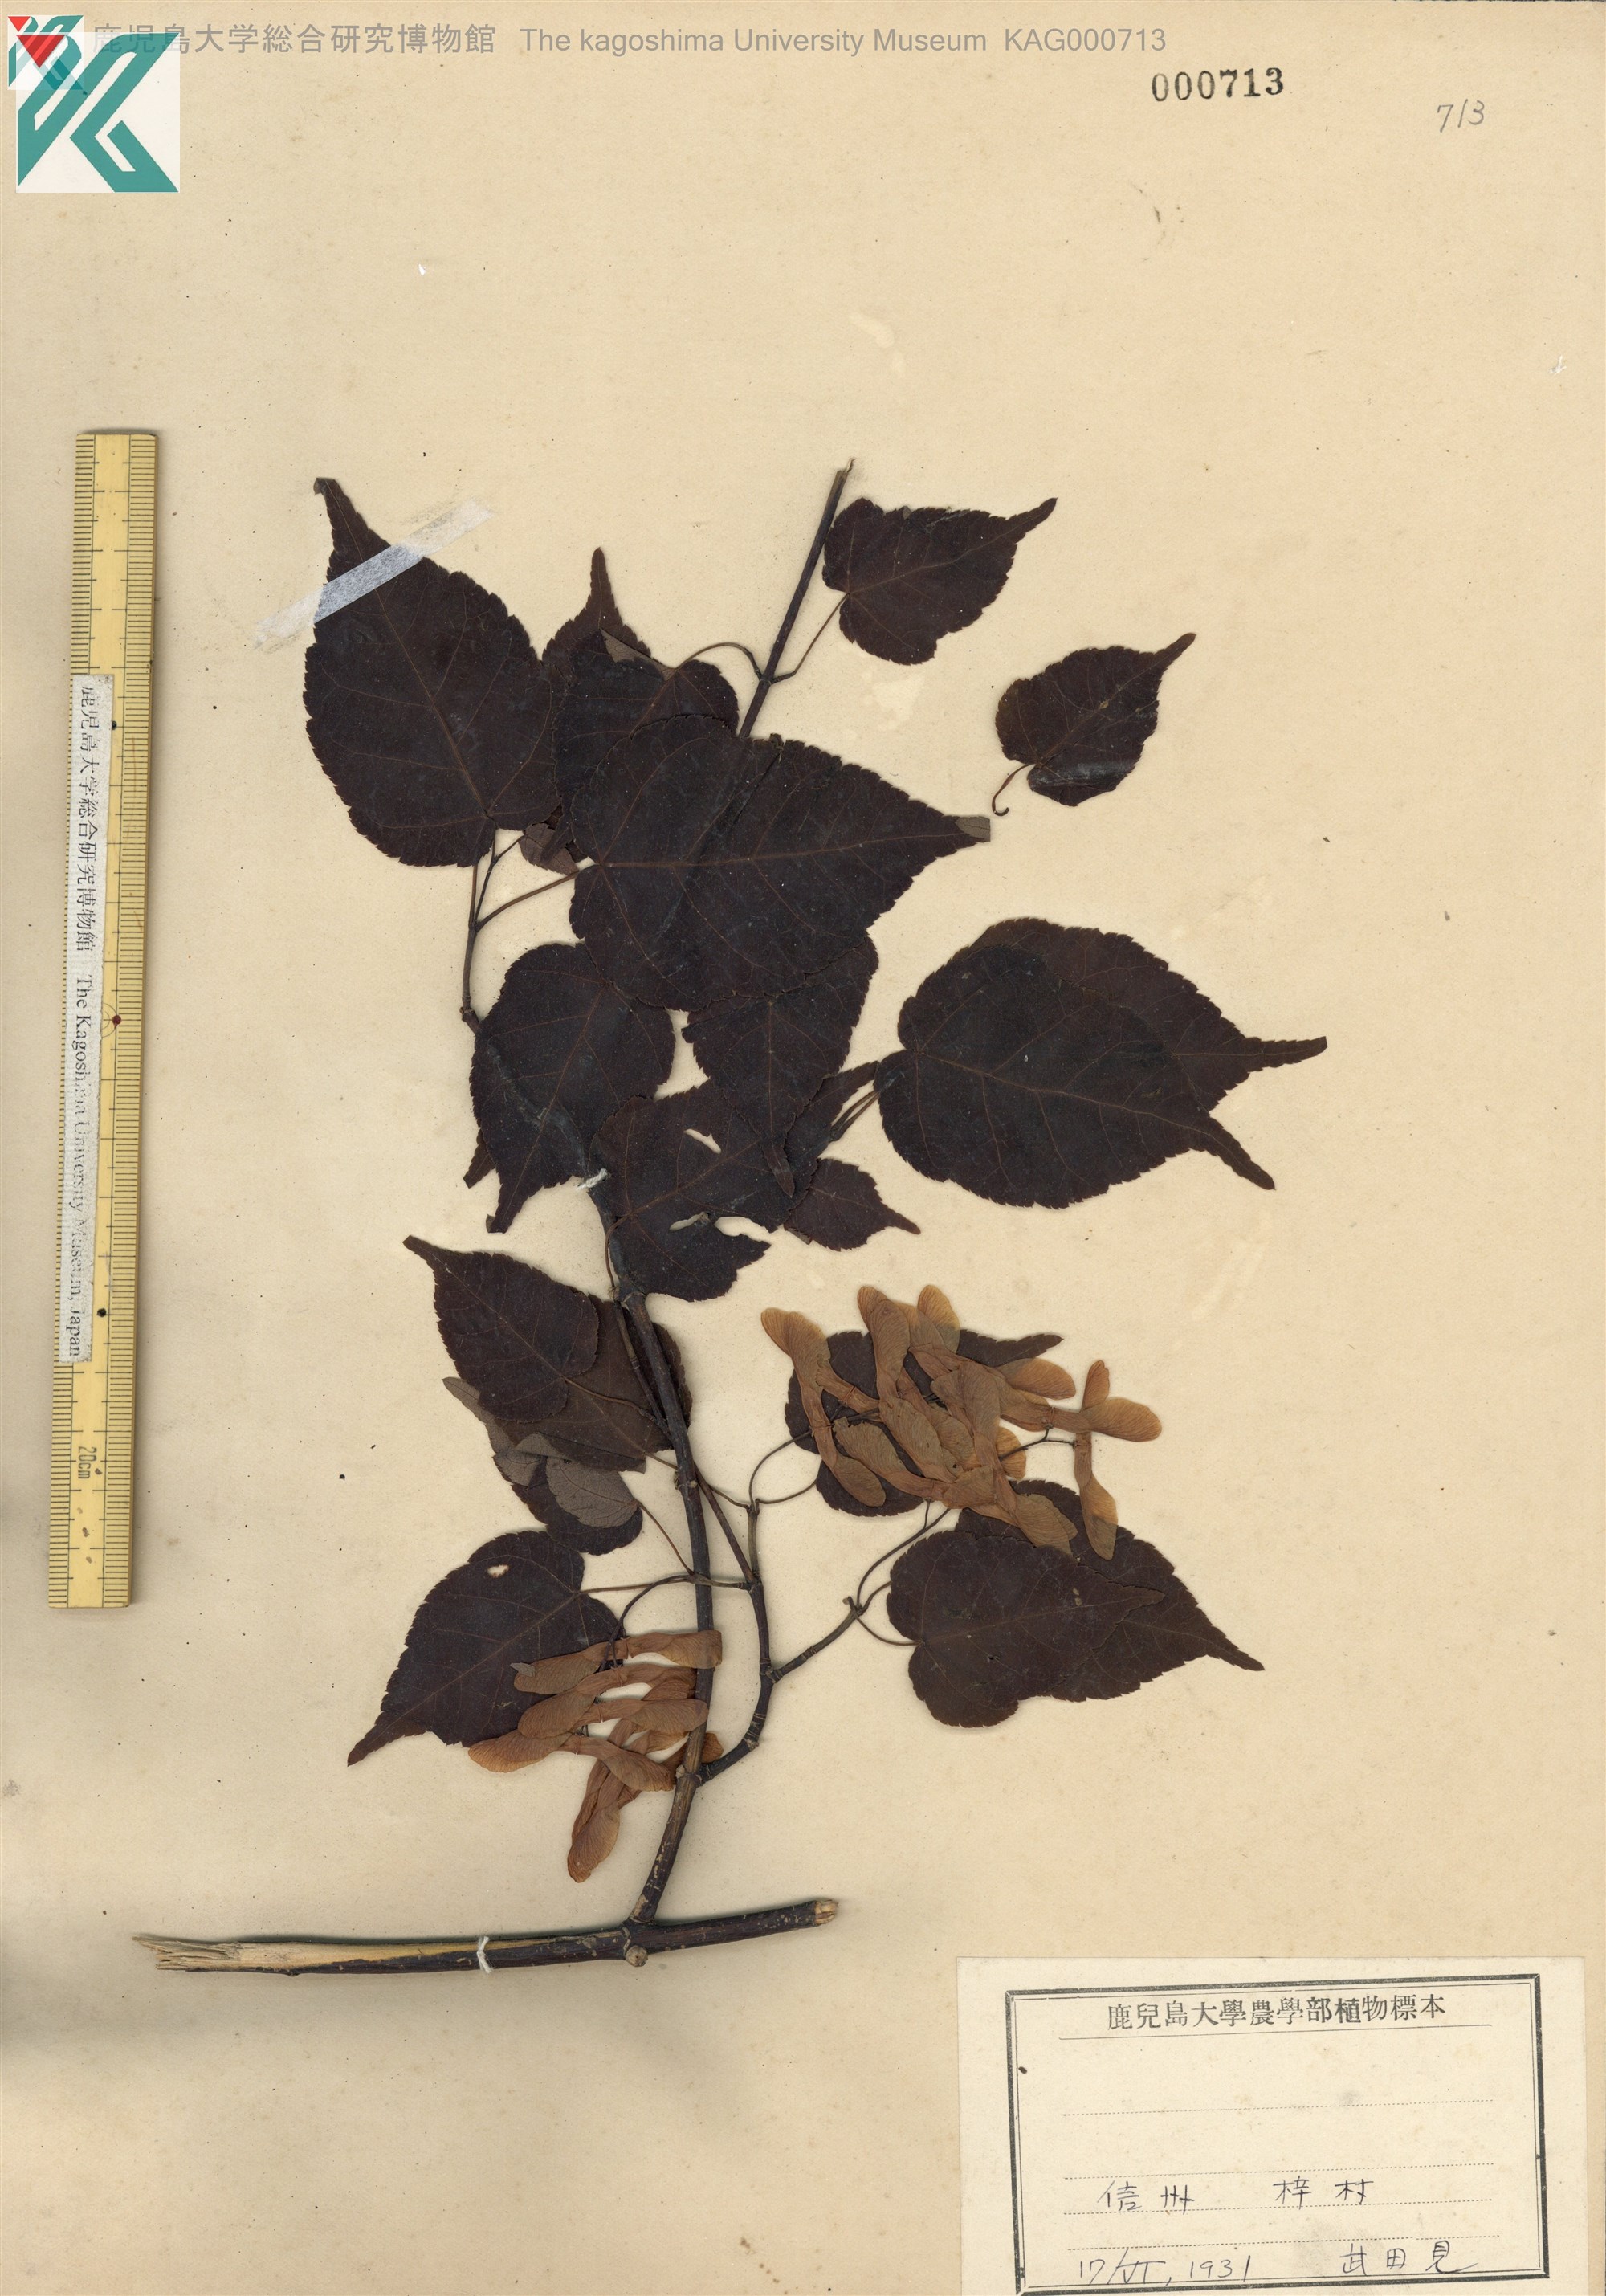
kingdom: Plantae
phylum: Tracheophyta
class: Magnoliopsida
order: Sapindales
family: Sapindaceae
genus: Acer
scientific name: Acer crataegifolium
